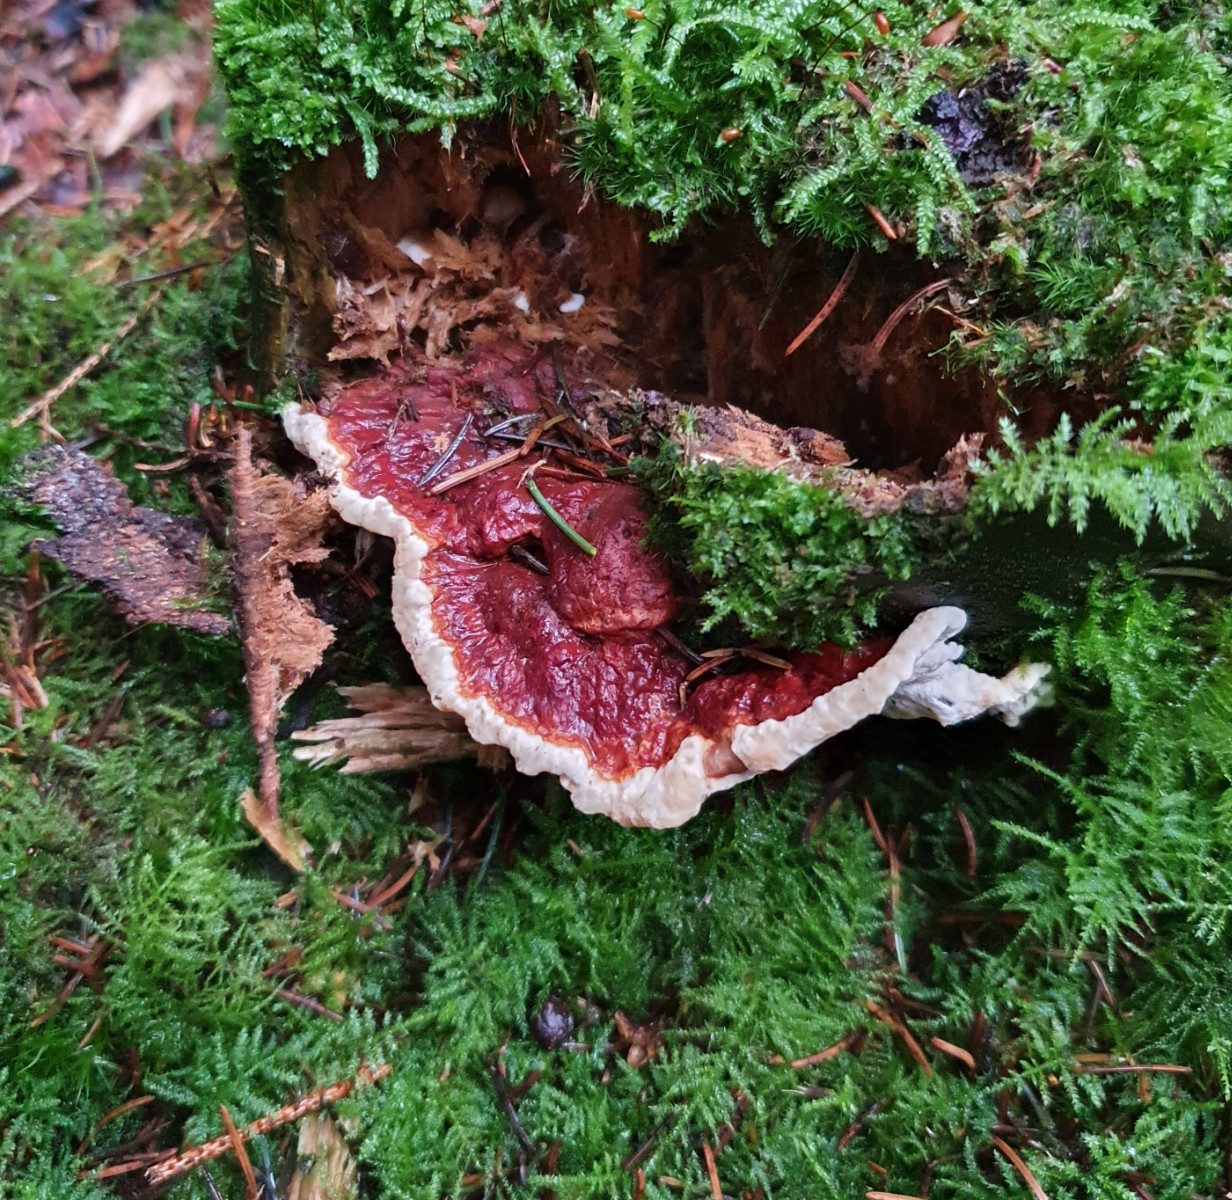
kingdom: Fungi
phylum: Basidiomycota
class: Agaricomycetes
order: Russulales
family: Bondarzewiaceae
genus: Heterobasidion
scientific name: Heterobasidion parviporum
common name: småporet rodfordærver
